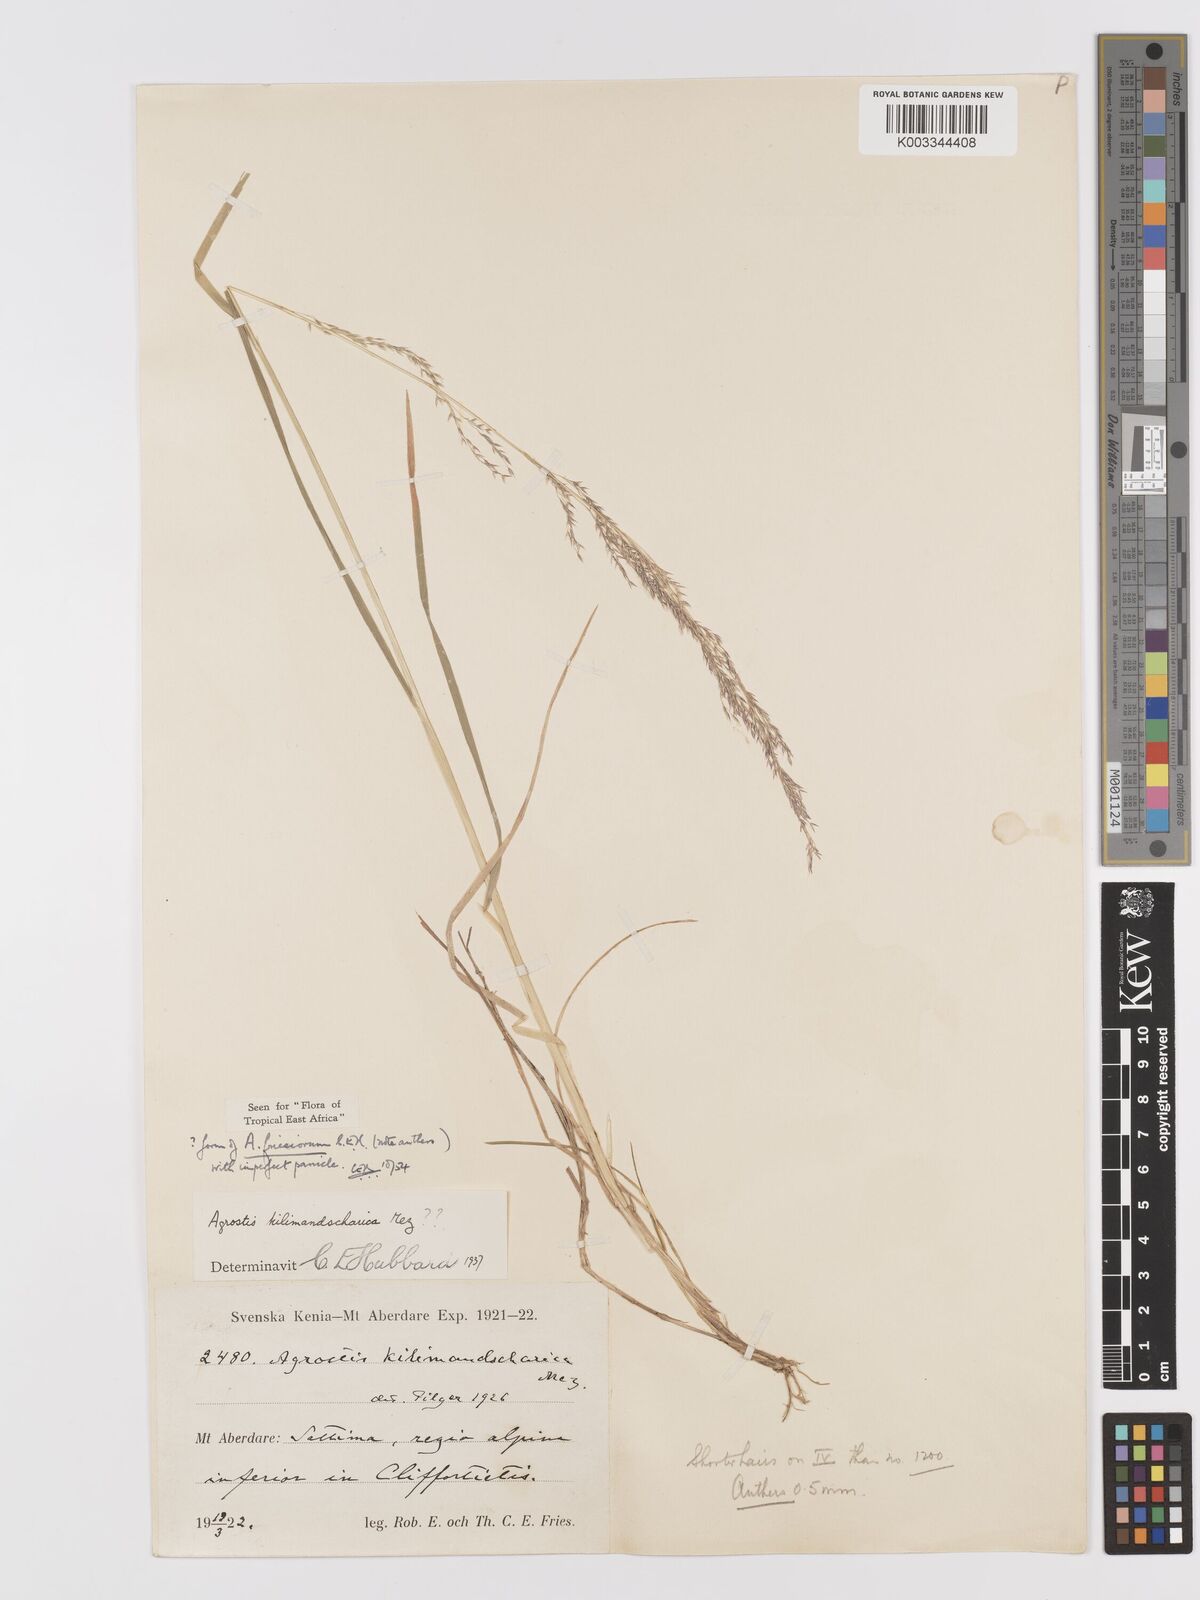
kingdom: Plantae
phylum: Tracheophyta
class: Liliopsida
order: Poales
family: Poaceae
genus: Agrostis
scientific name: Agrostis kilimandscharica
